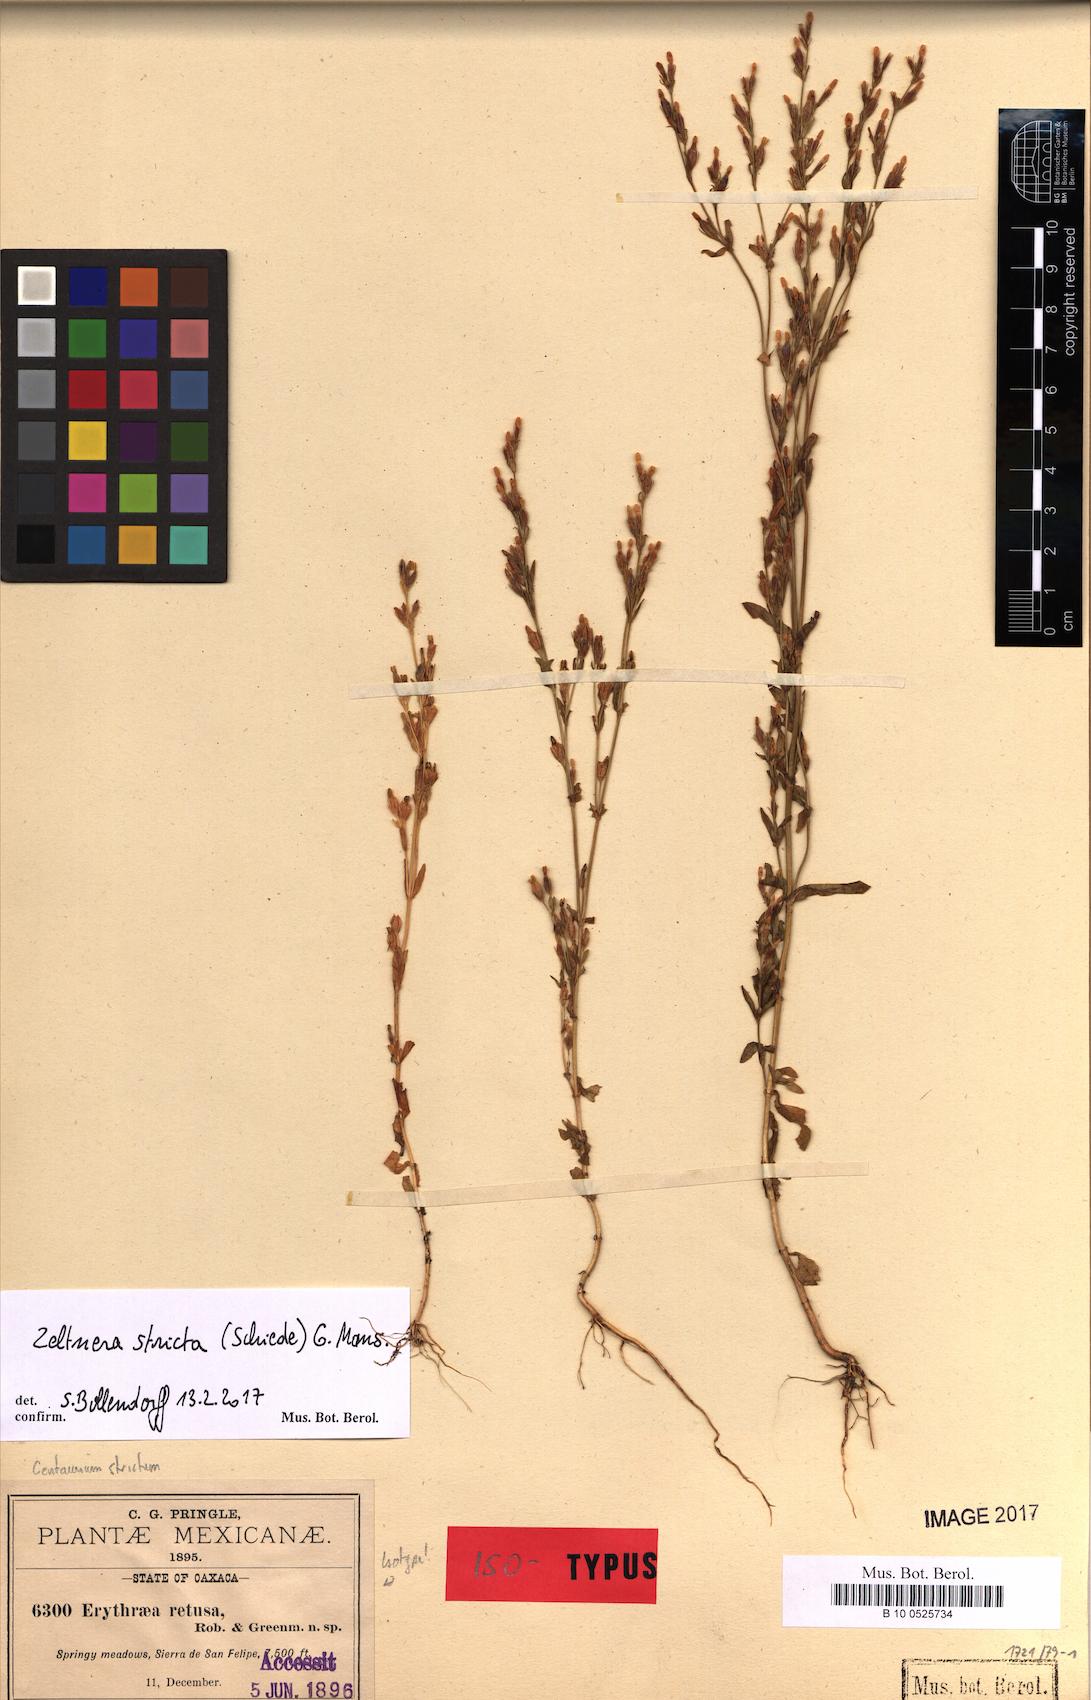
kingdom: Plantae
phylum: Tracheophyta
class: Magnoliopsida
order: Gentianales
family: Gentianaceae
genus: Zeltnera
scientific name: Zeltnera stricta
